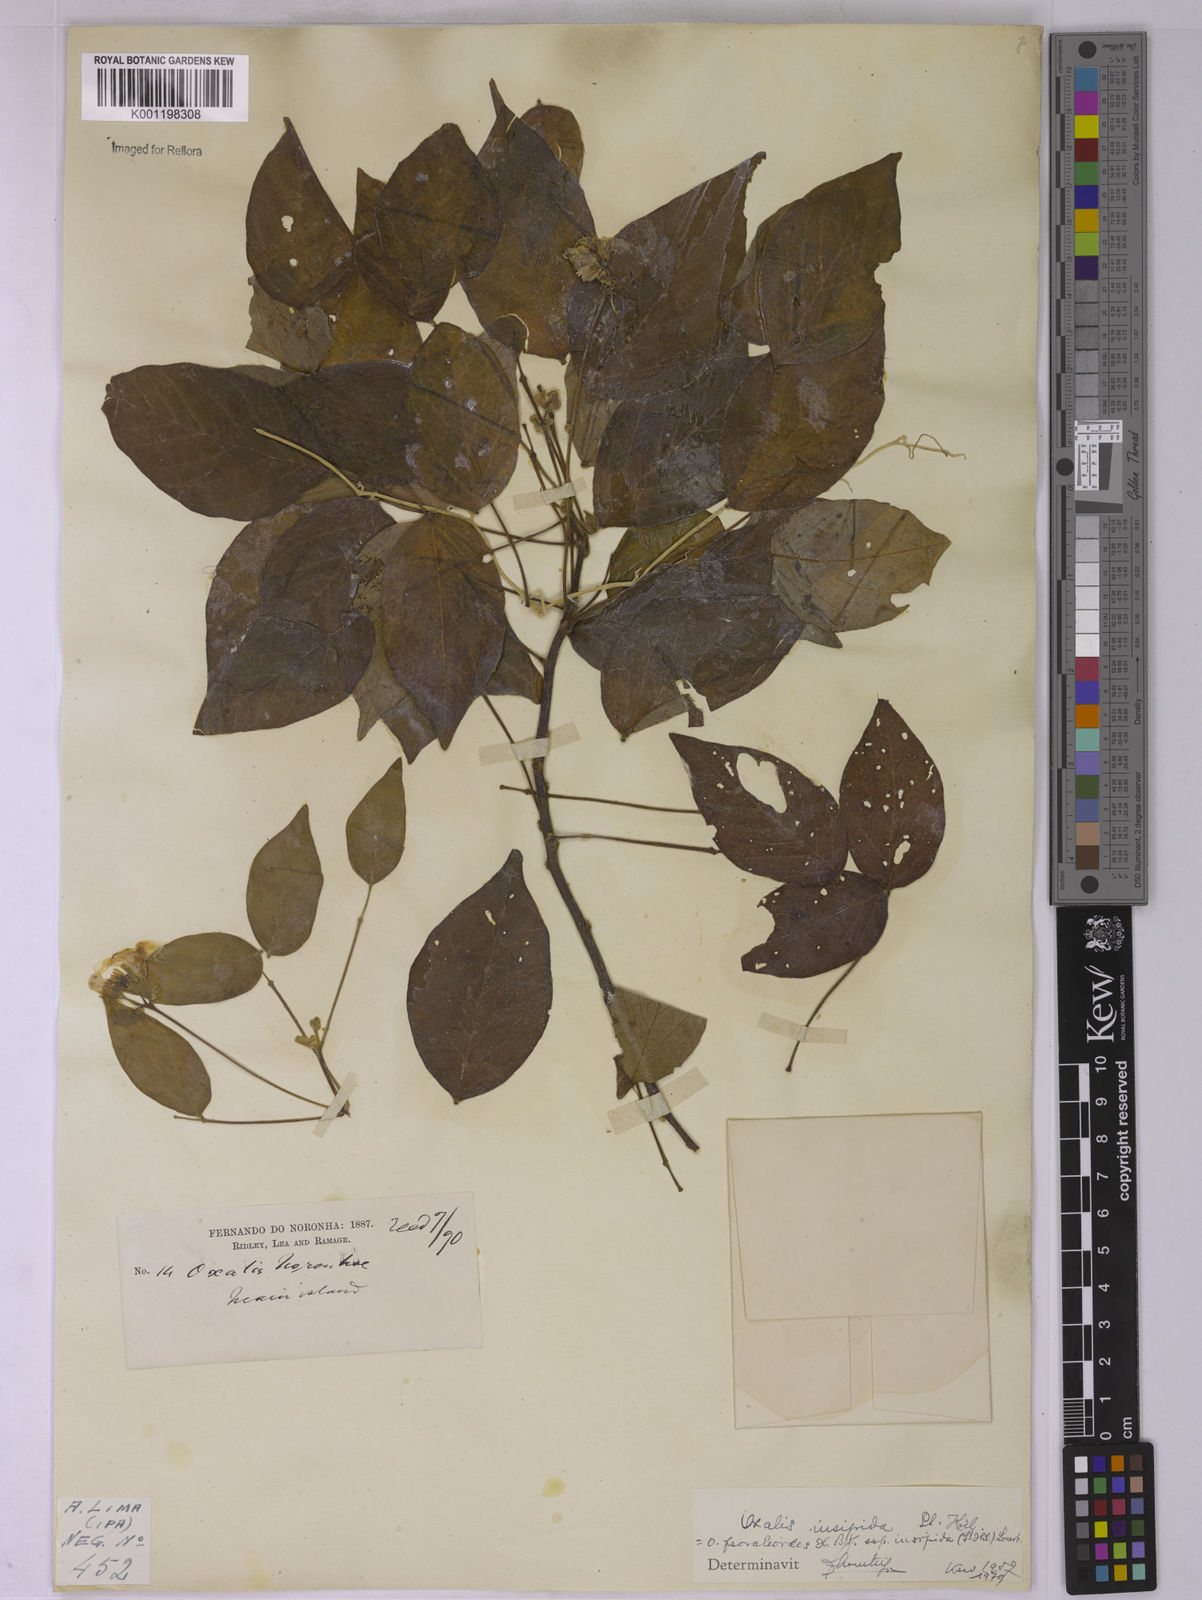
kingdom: Plantae
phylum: Tracheophyta
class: Magnoliopsida
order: Oxalidales
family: Oxalidaceae
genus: Oxalis
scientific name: Oxalis psoraleoides
